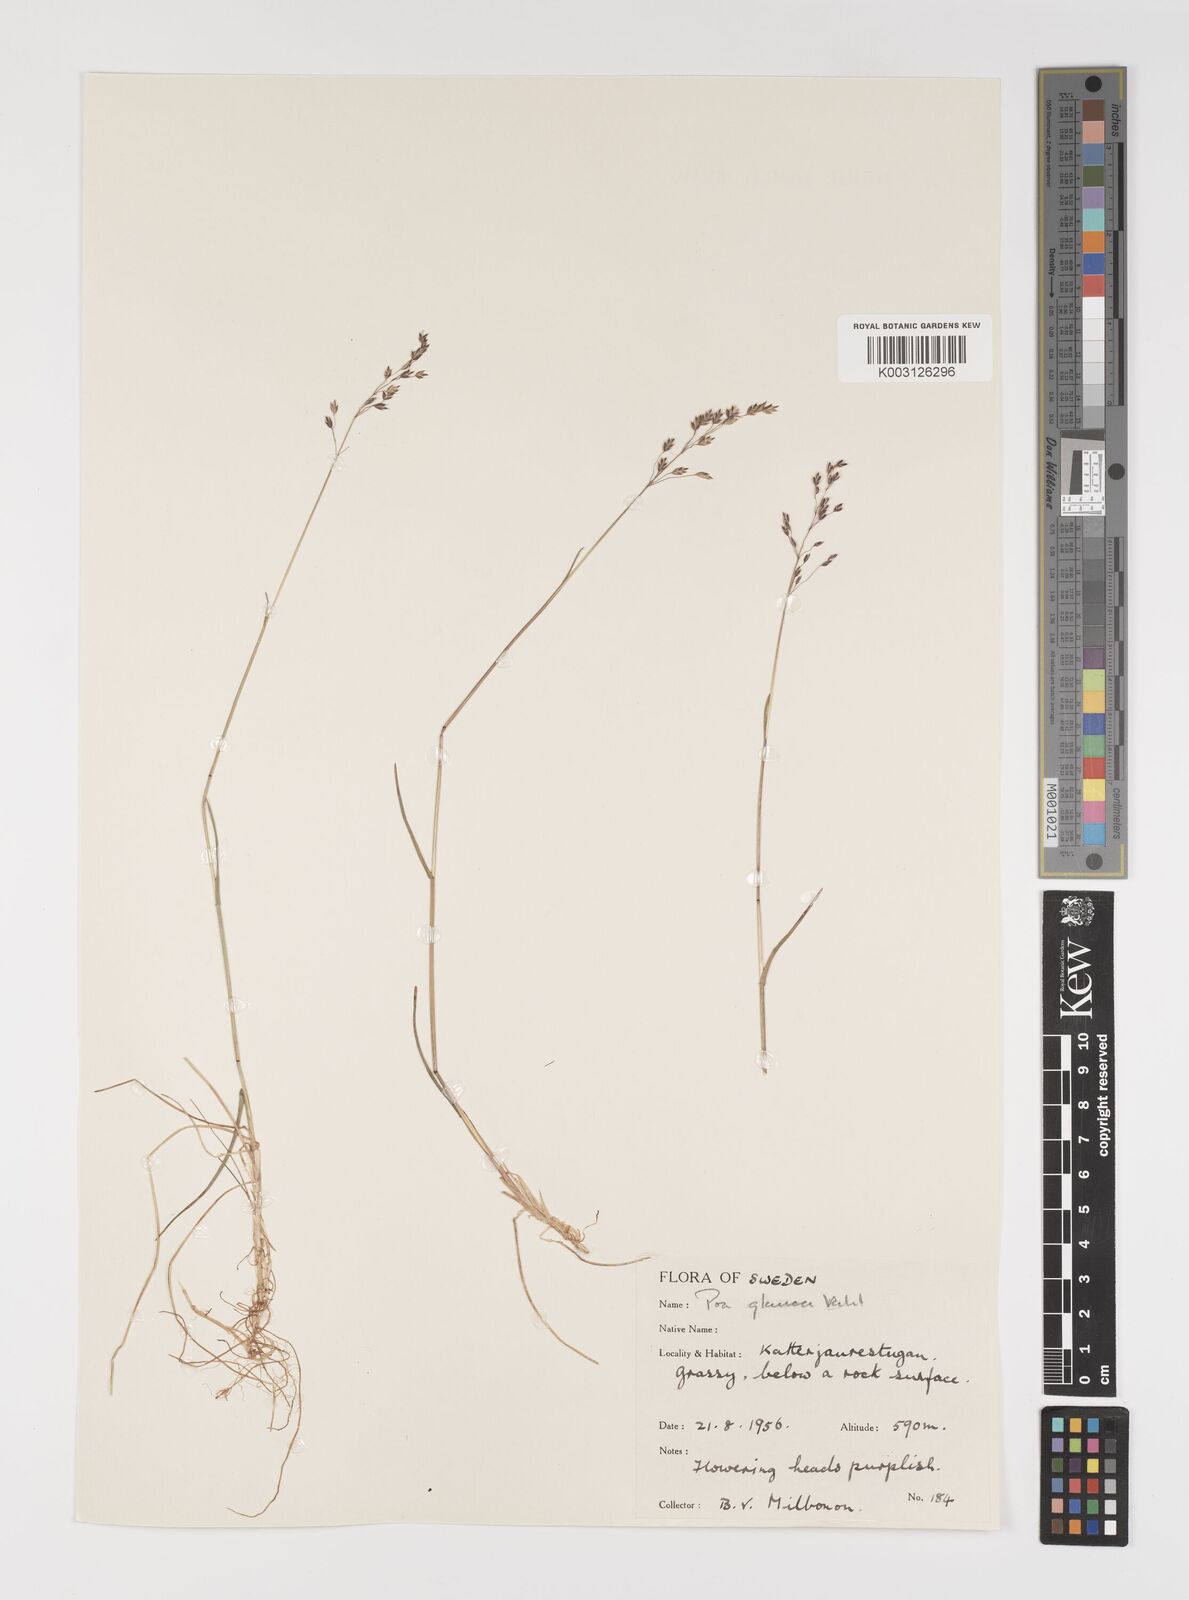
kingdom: Plantae
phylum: Tracheophyta
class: Liliopsida
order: Poales
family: Poaceae
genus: Poa
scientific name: Poa glauca
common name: Glaucous bluegrass
